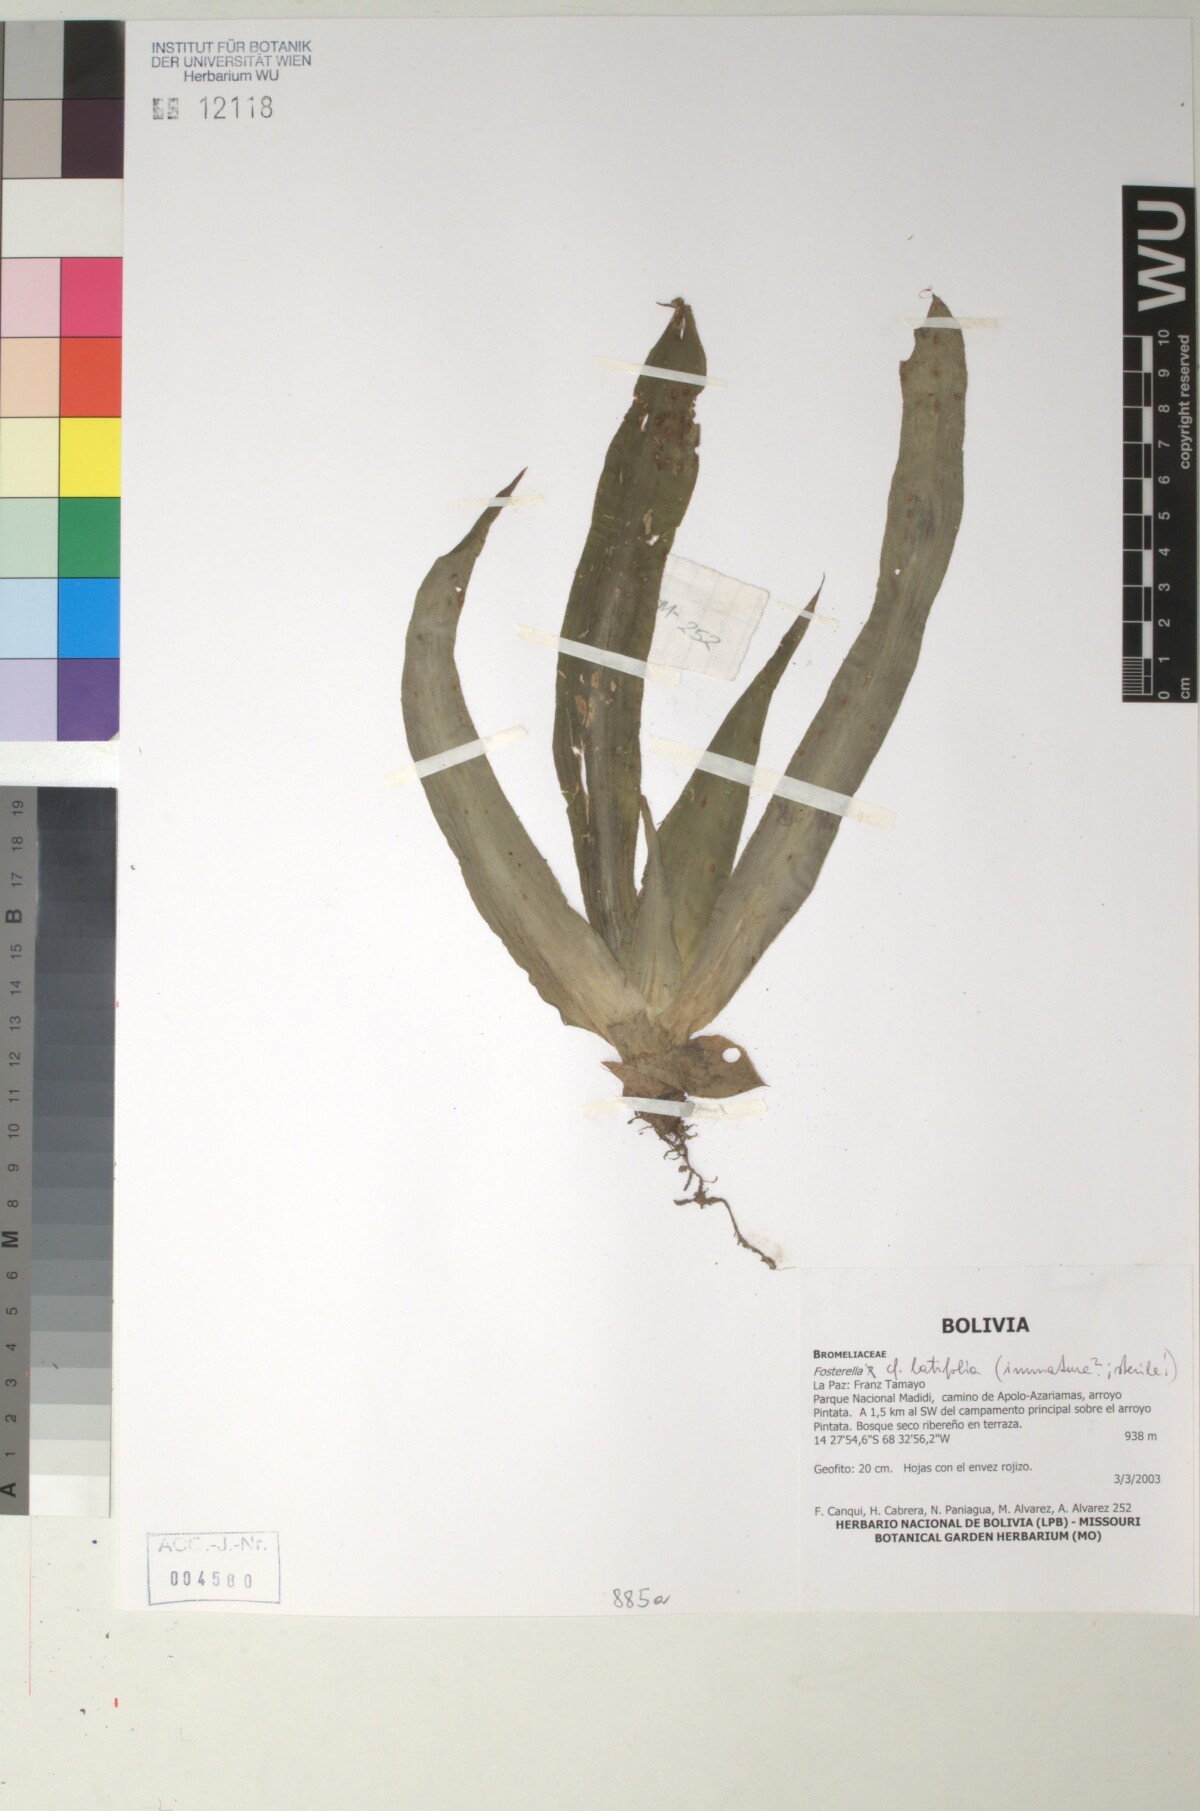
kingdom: Plantae
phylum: Tracheophyta
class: Liliopsida
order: Poales
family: Bromeliaceae
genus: Fosterella
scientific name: Fosterella penduliflora
